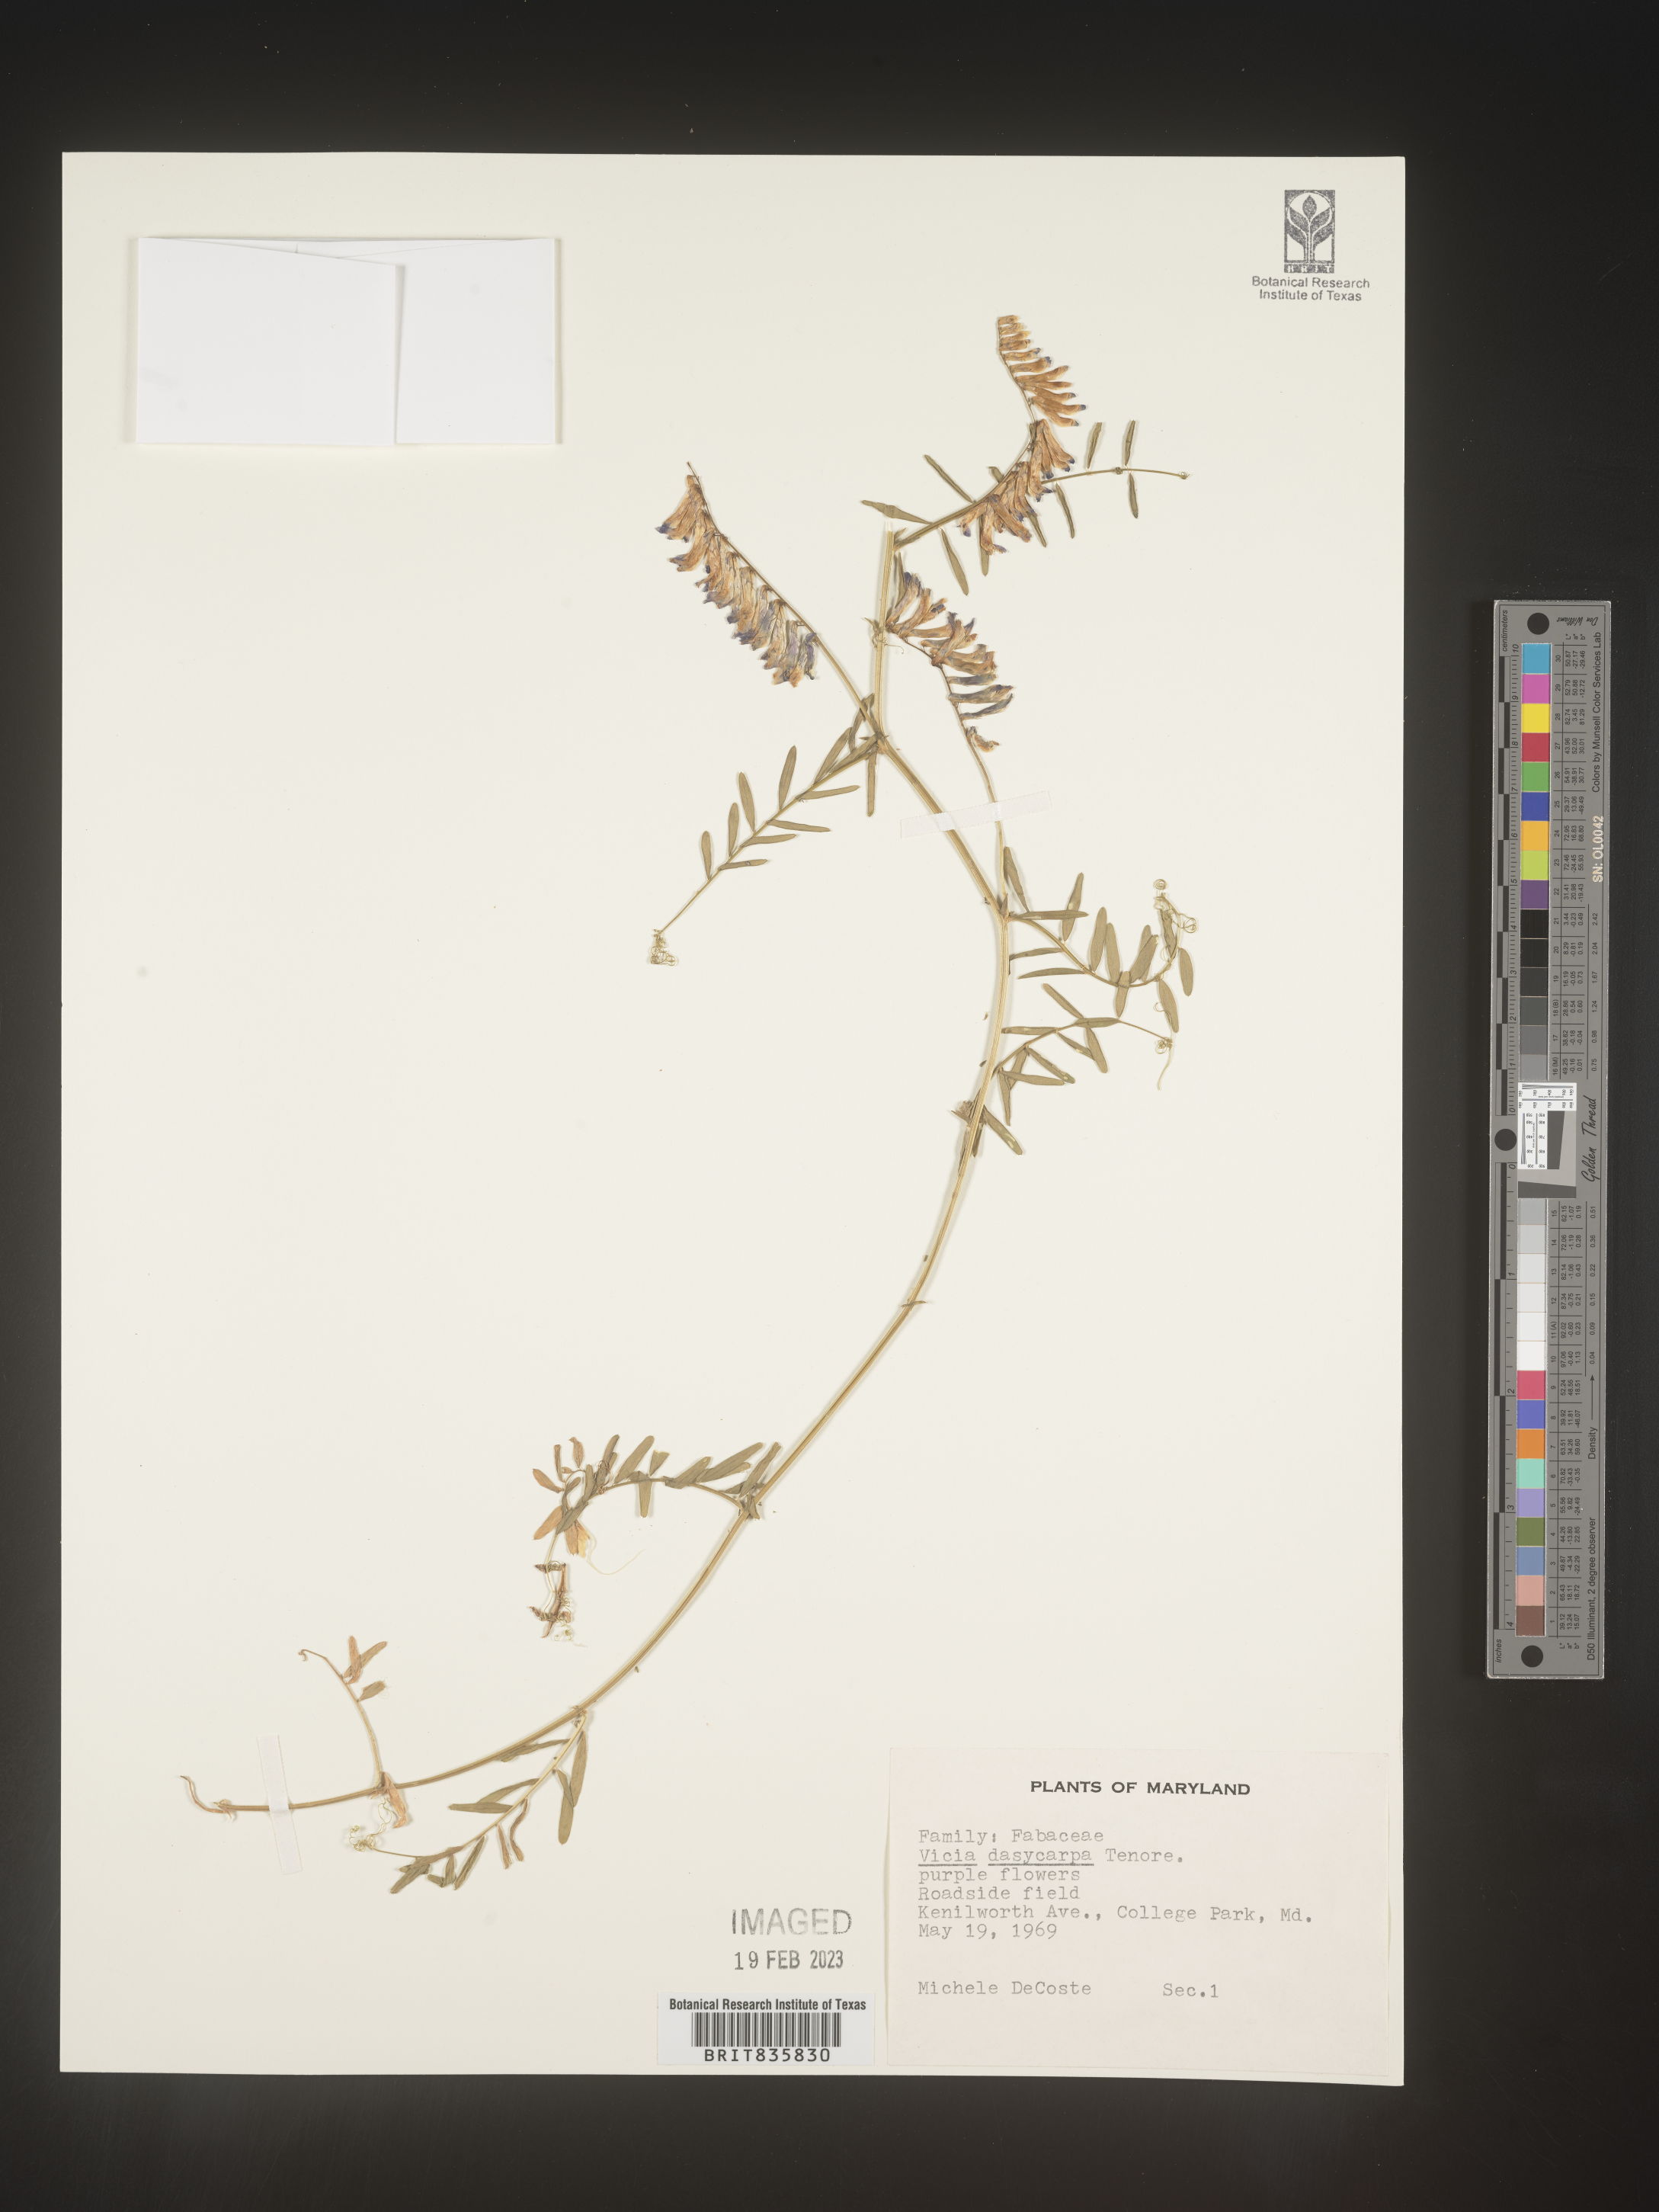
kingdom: Plantae
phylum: Tracheophyta
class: Magnoliopsida
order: Fabales
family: Fabaceae
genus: Vicia
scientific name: Vicia villosa
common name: Fodder vetch
